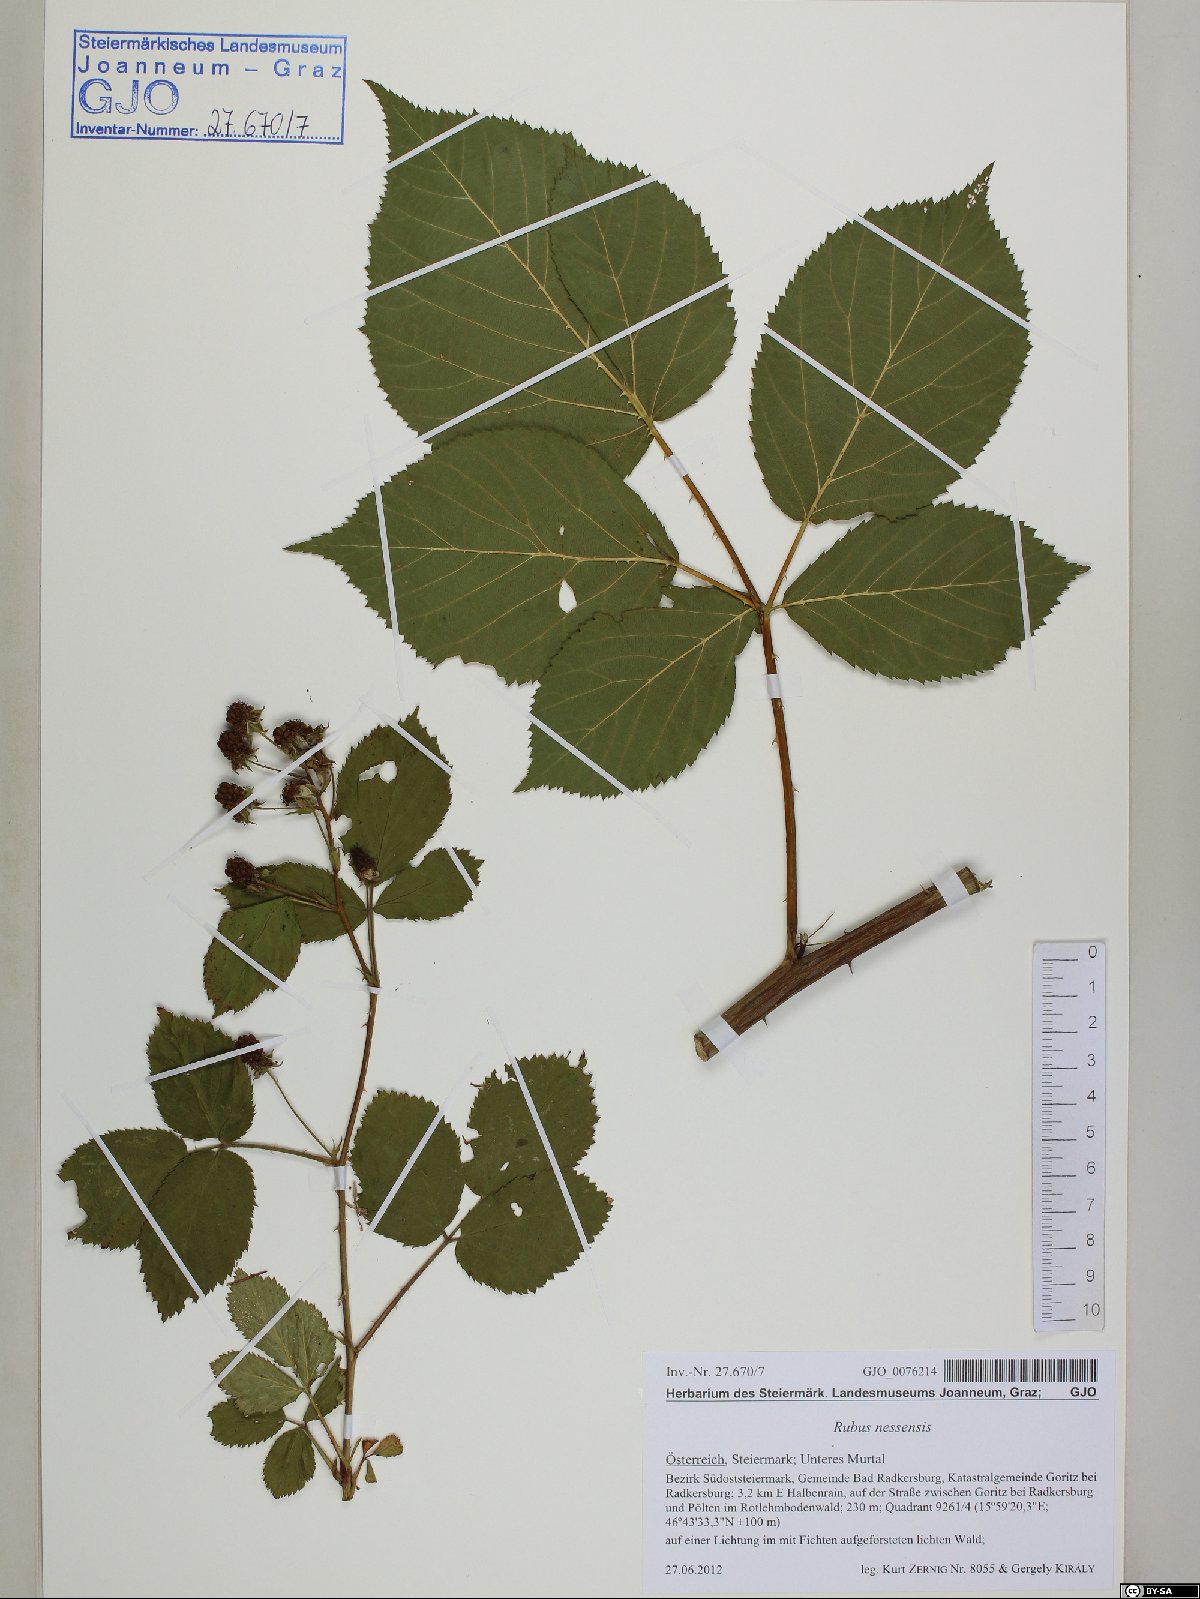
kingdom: Plantae
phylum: Tracheophyta
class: Magnoliopsida
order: Rosales
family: Rosaceae
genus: Rubus
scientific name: Rubus polonicus
